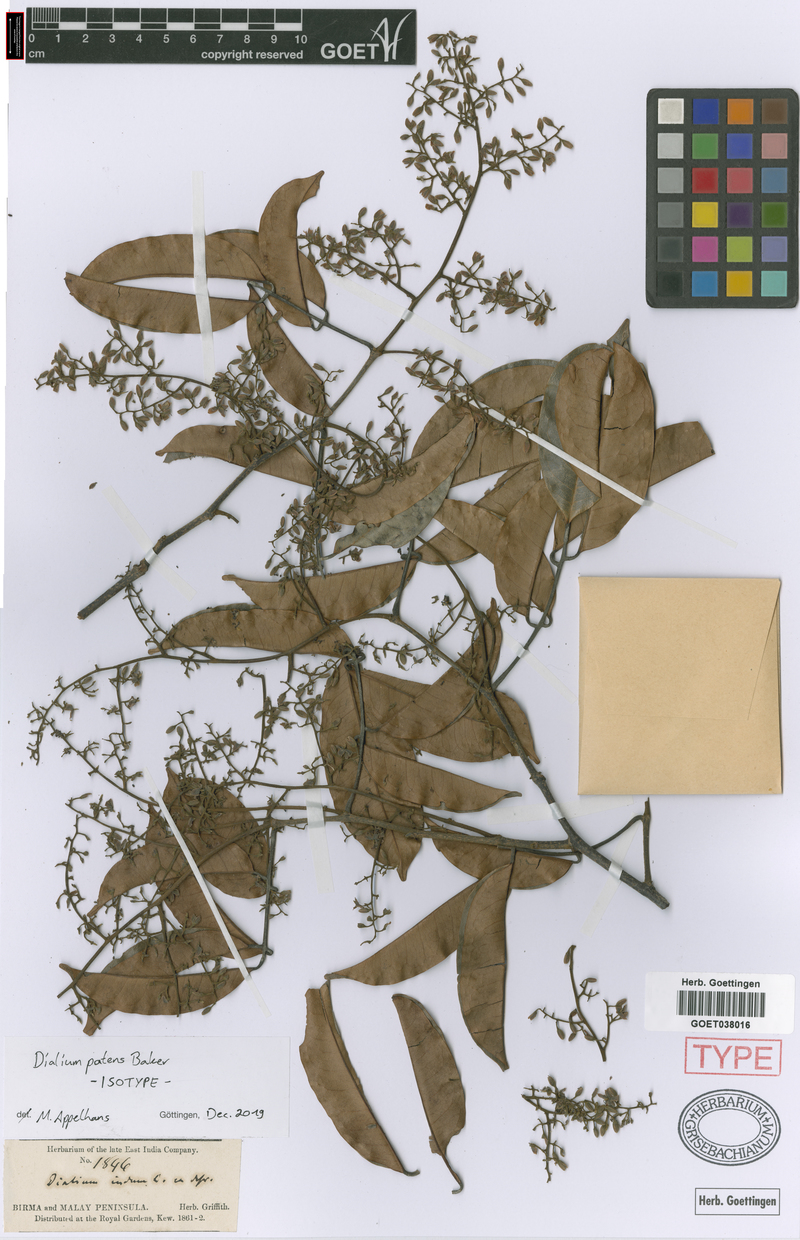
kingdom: Plantae
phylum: Tracheophyta
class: Magnoliopsida
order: Fabales
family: Fabaceae
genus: Dialium
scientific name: Dialium indum
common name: Tamarind-plum
